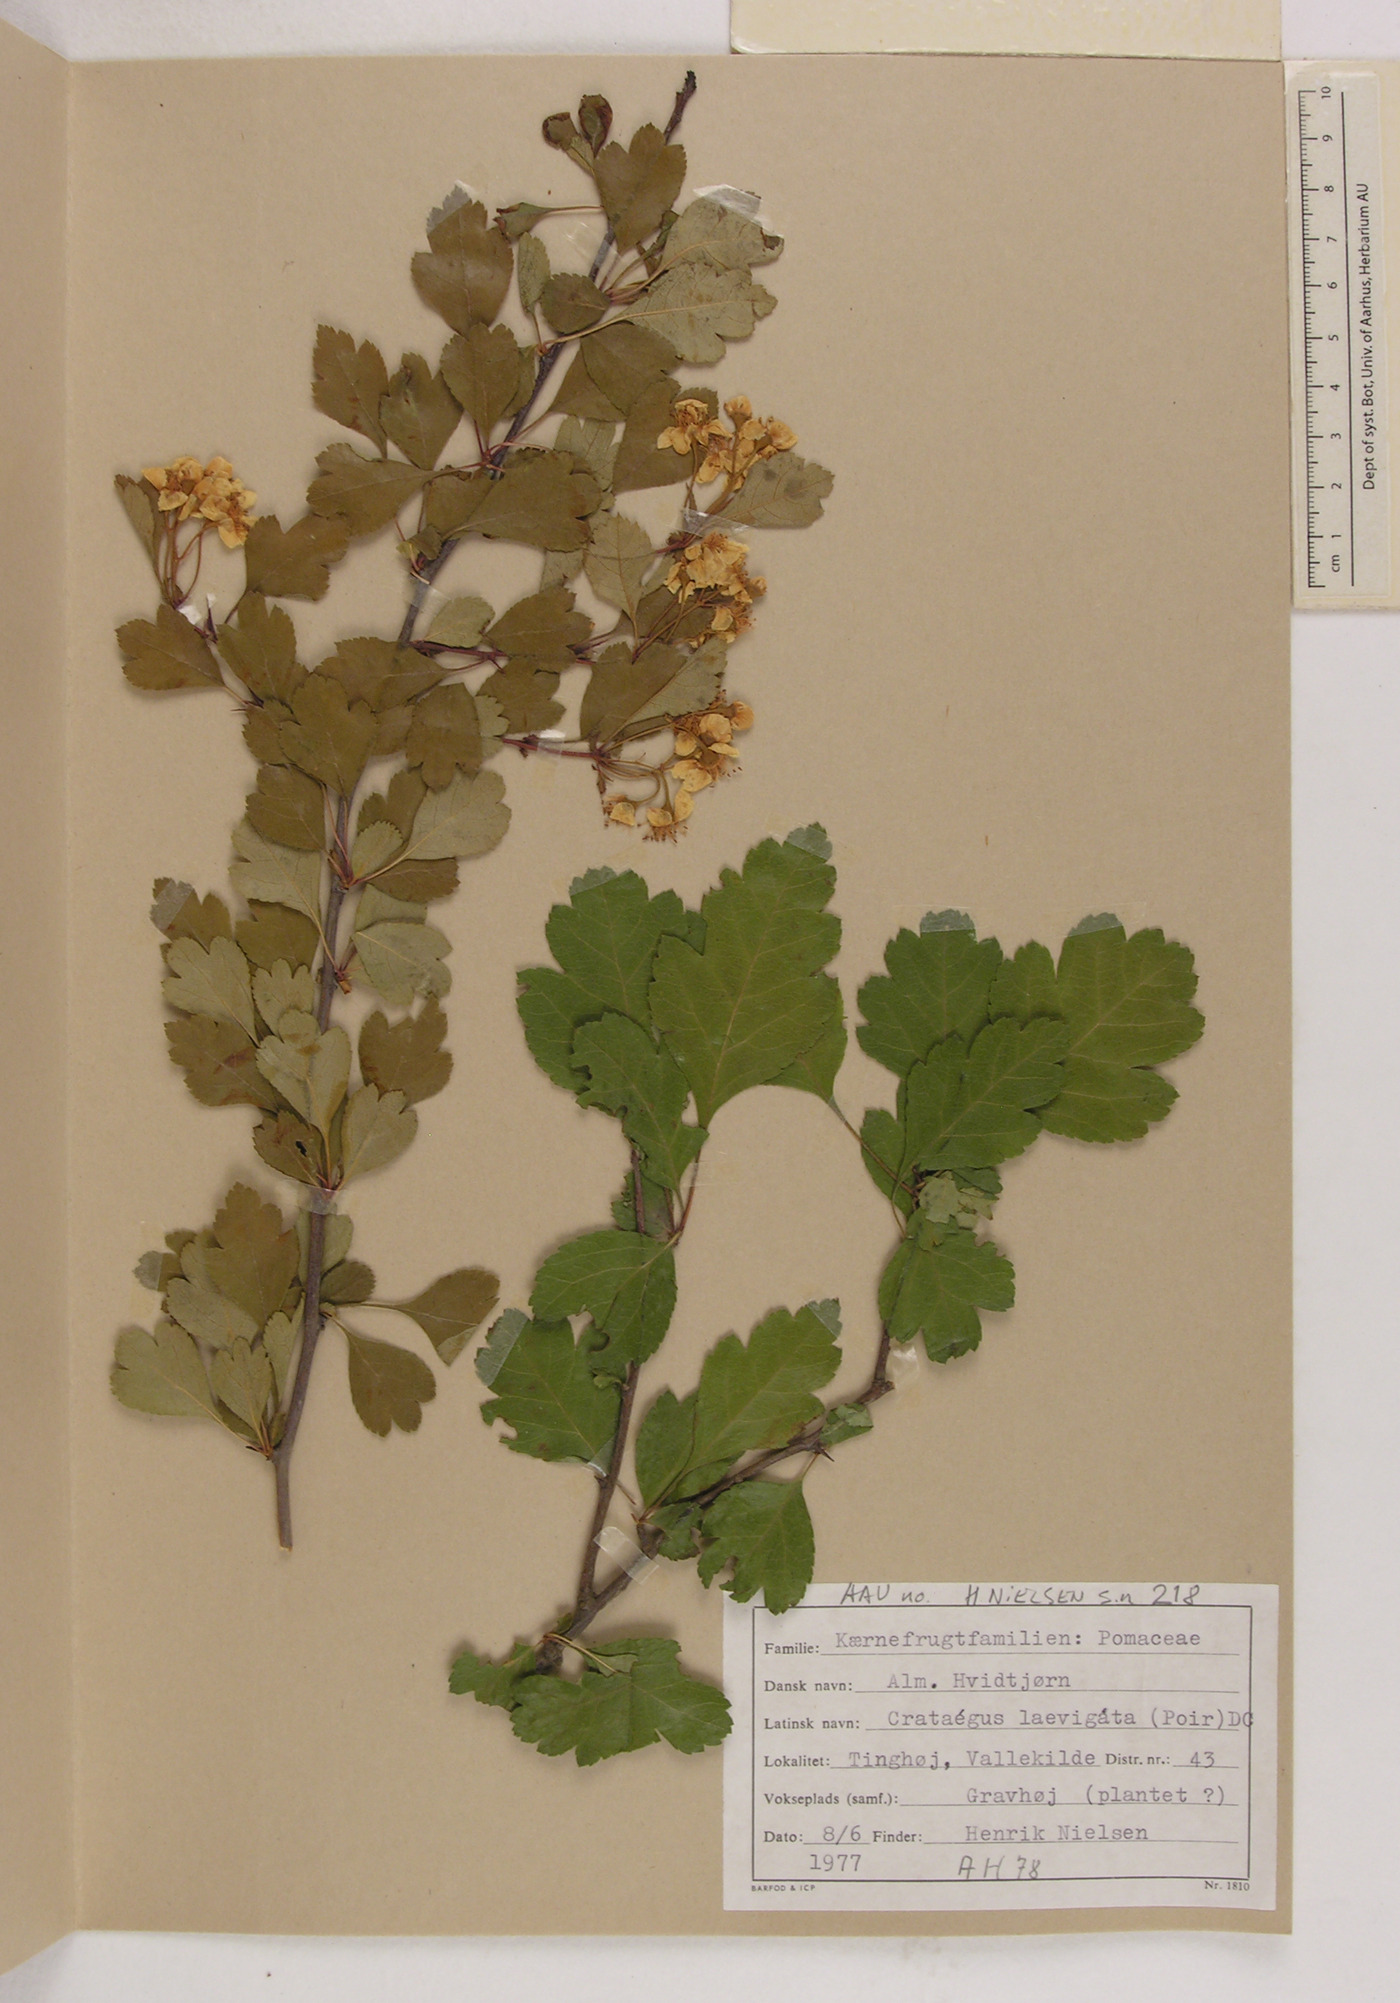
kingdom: Plantae
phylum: Tracheophyta
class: Magnoliopsida
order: Rosales
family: Rosaceae
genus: Crataegus
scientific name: Crataegus laevigata
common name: Midland hawthorn
